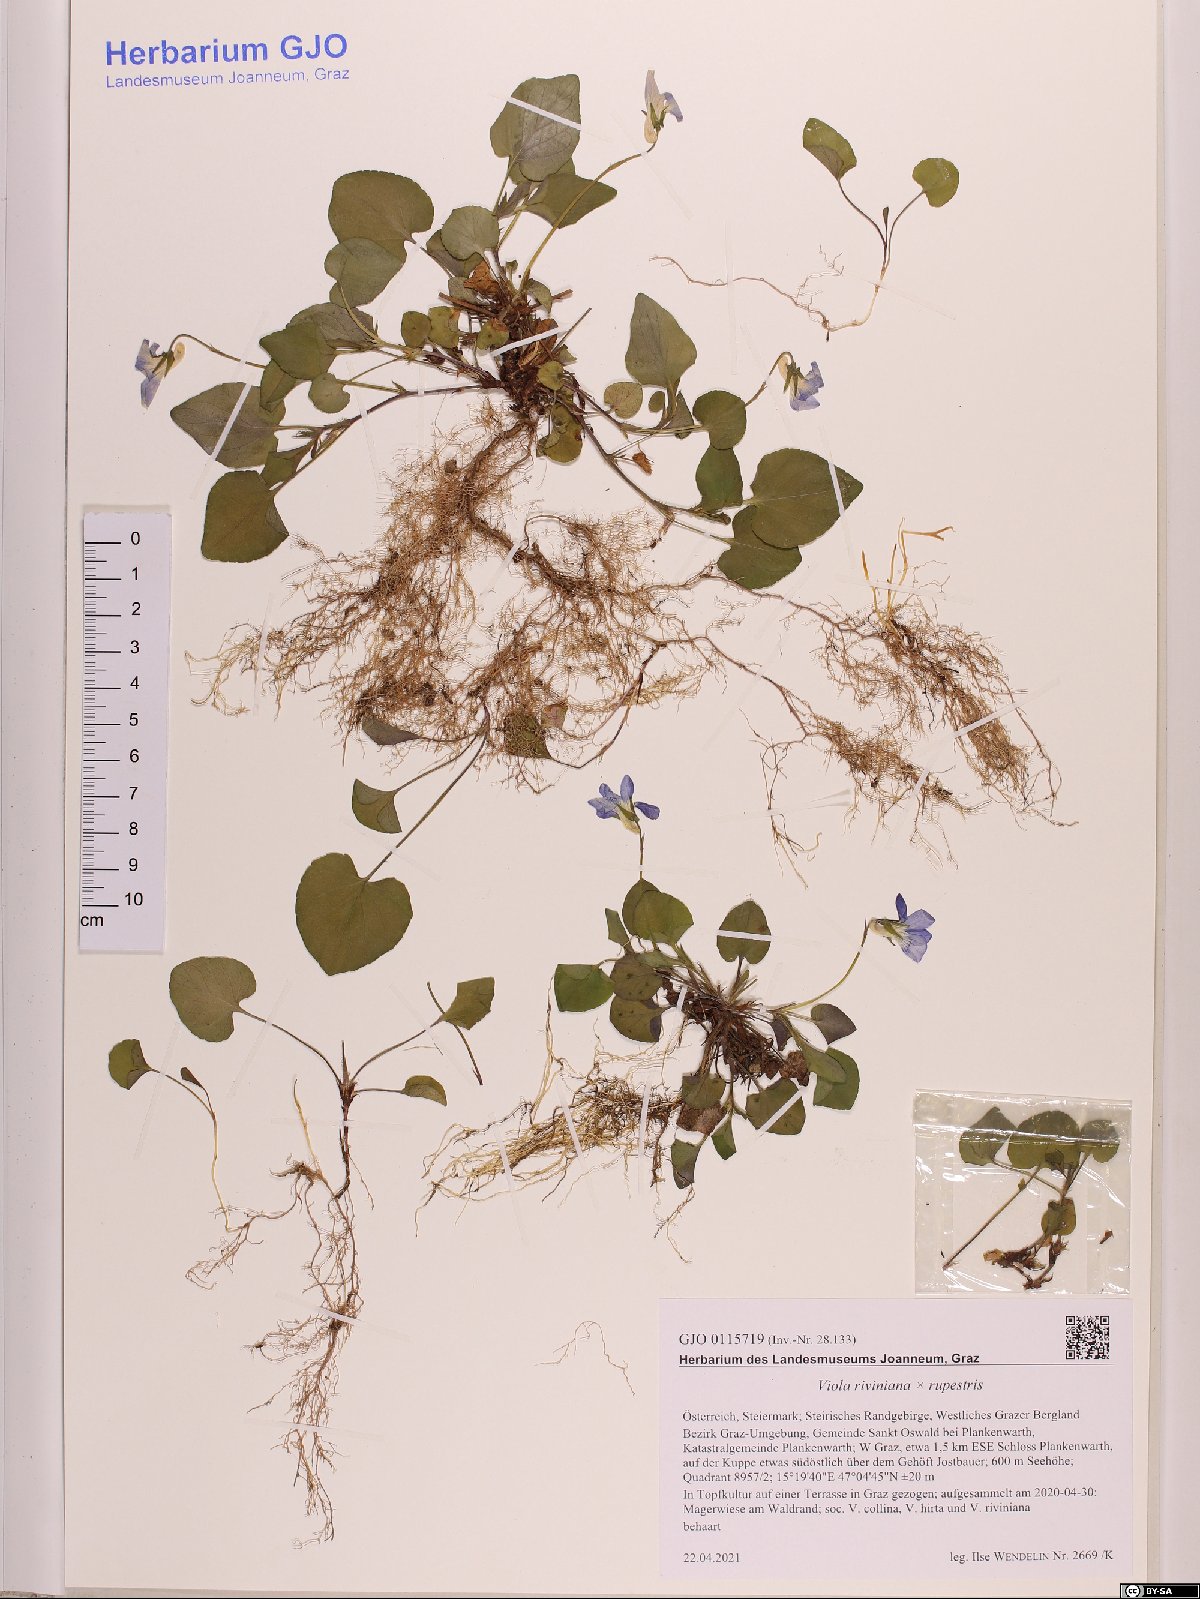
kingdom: Plantae
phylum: Tracheophyta
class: Magnoliopsida
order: Malpighiales
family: Violaceae
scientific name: Violaceae
